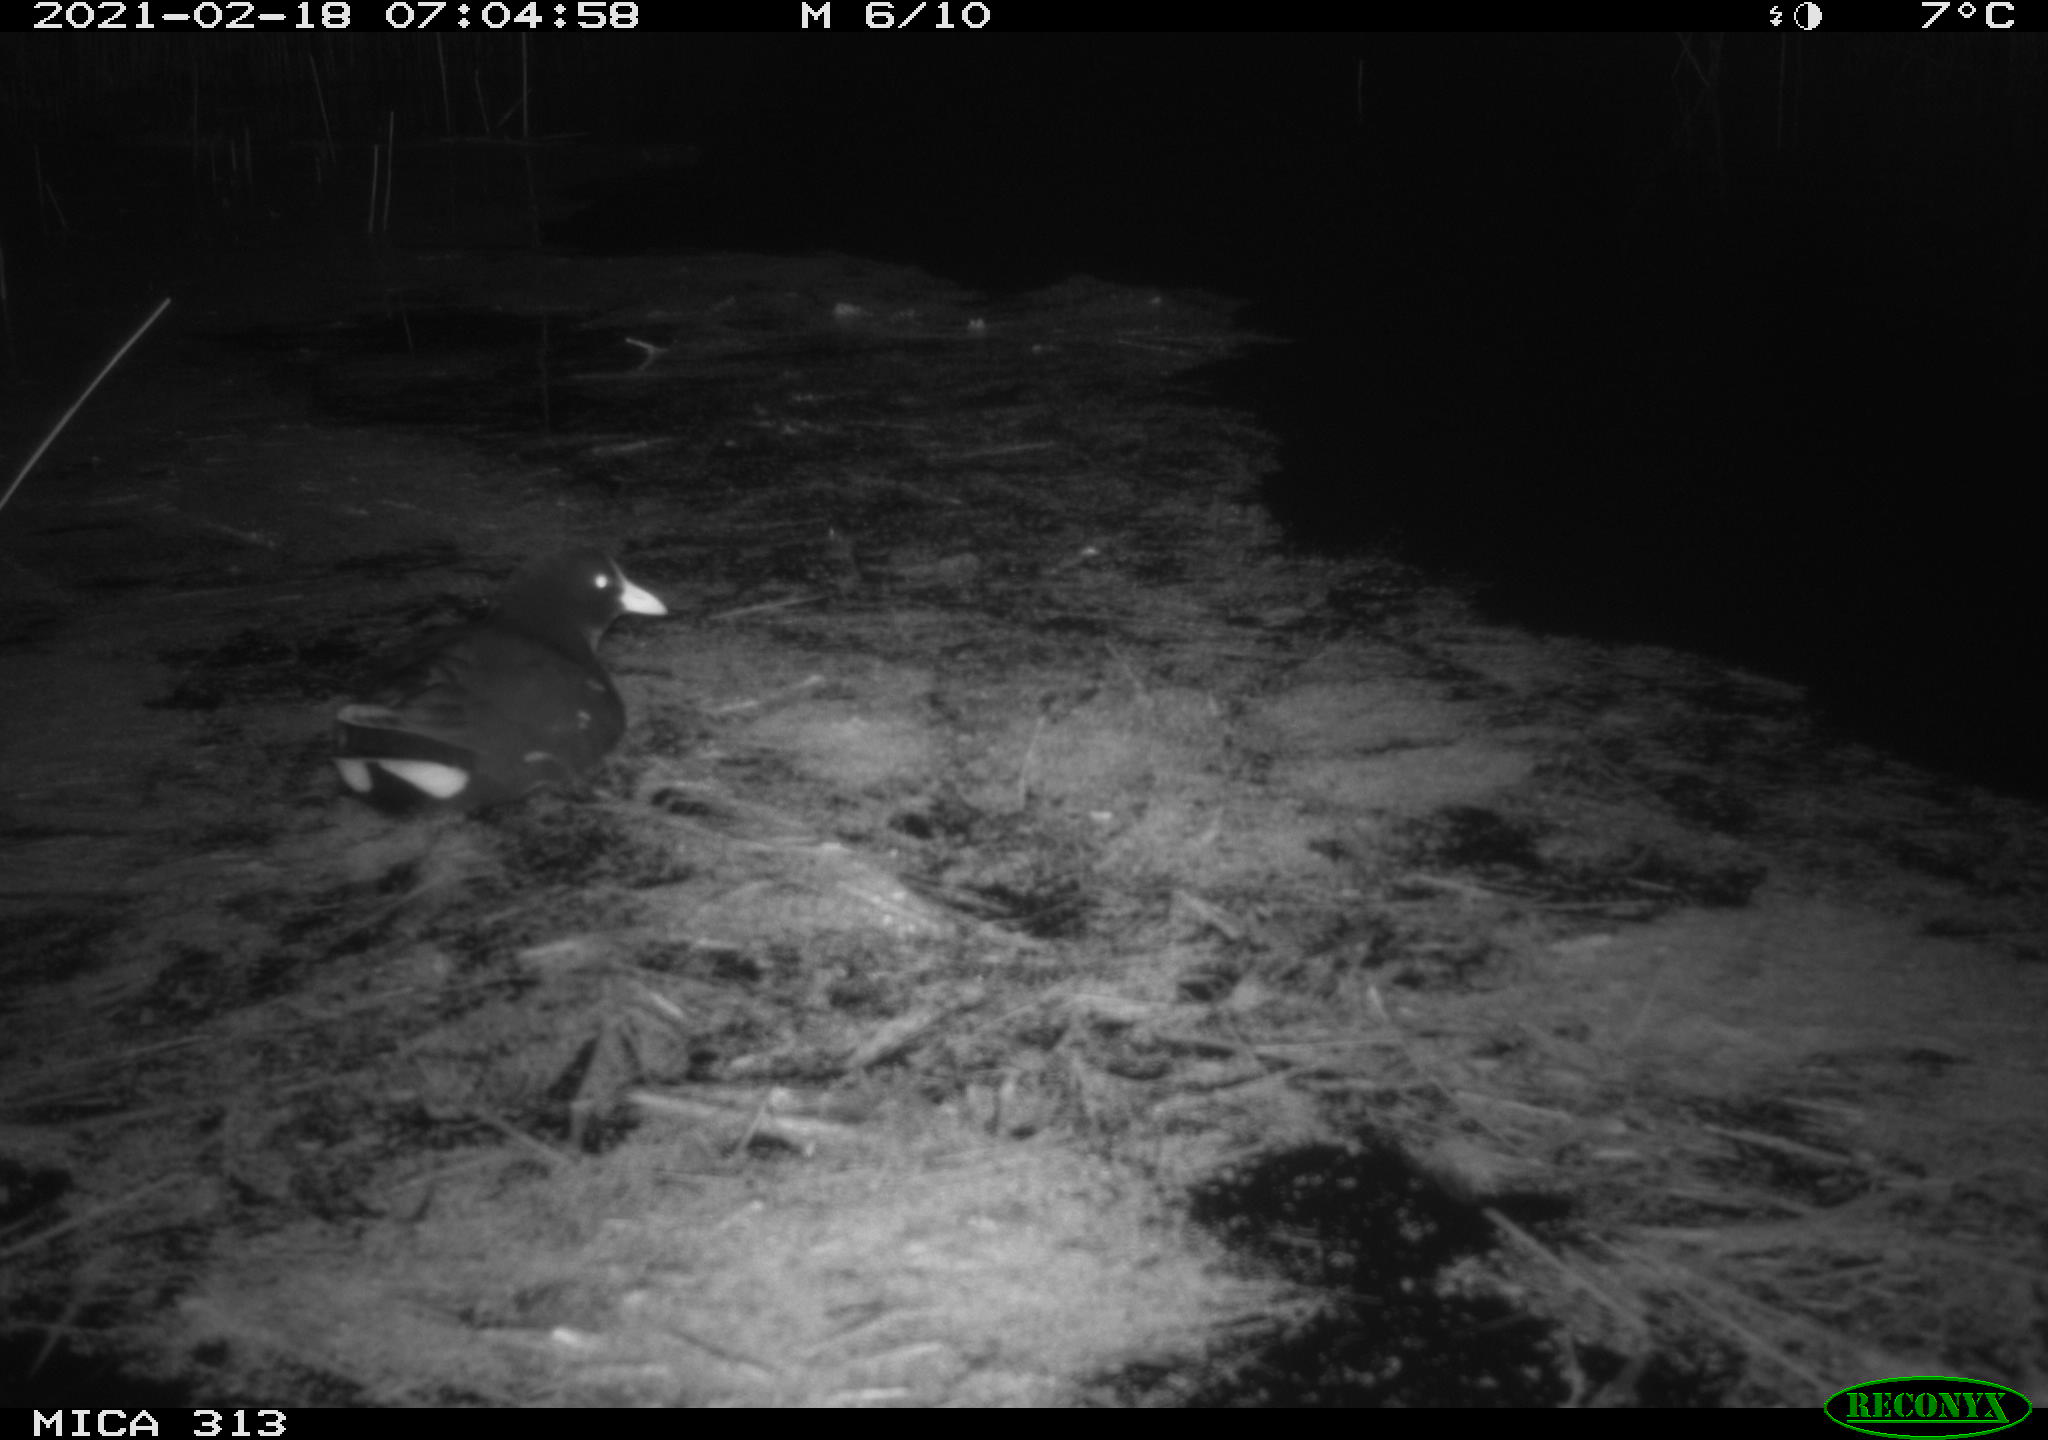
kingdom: Animalia
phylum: Chordata
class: Aves
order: Gruiformes
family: Rallidae
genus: Gallinula
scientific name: Gallinula chloropus
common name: Common moorhen
